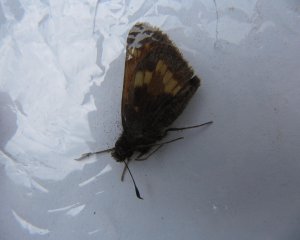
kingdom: Animalia
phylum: Arthropoda
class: Insecta
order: Lepidoptera
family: Hesperiidae
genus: Polites
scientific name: Polites
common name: Long Dash Skipper
